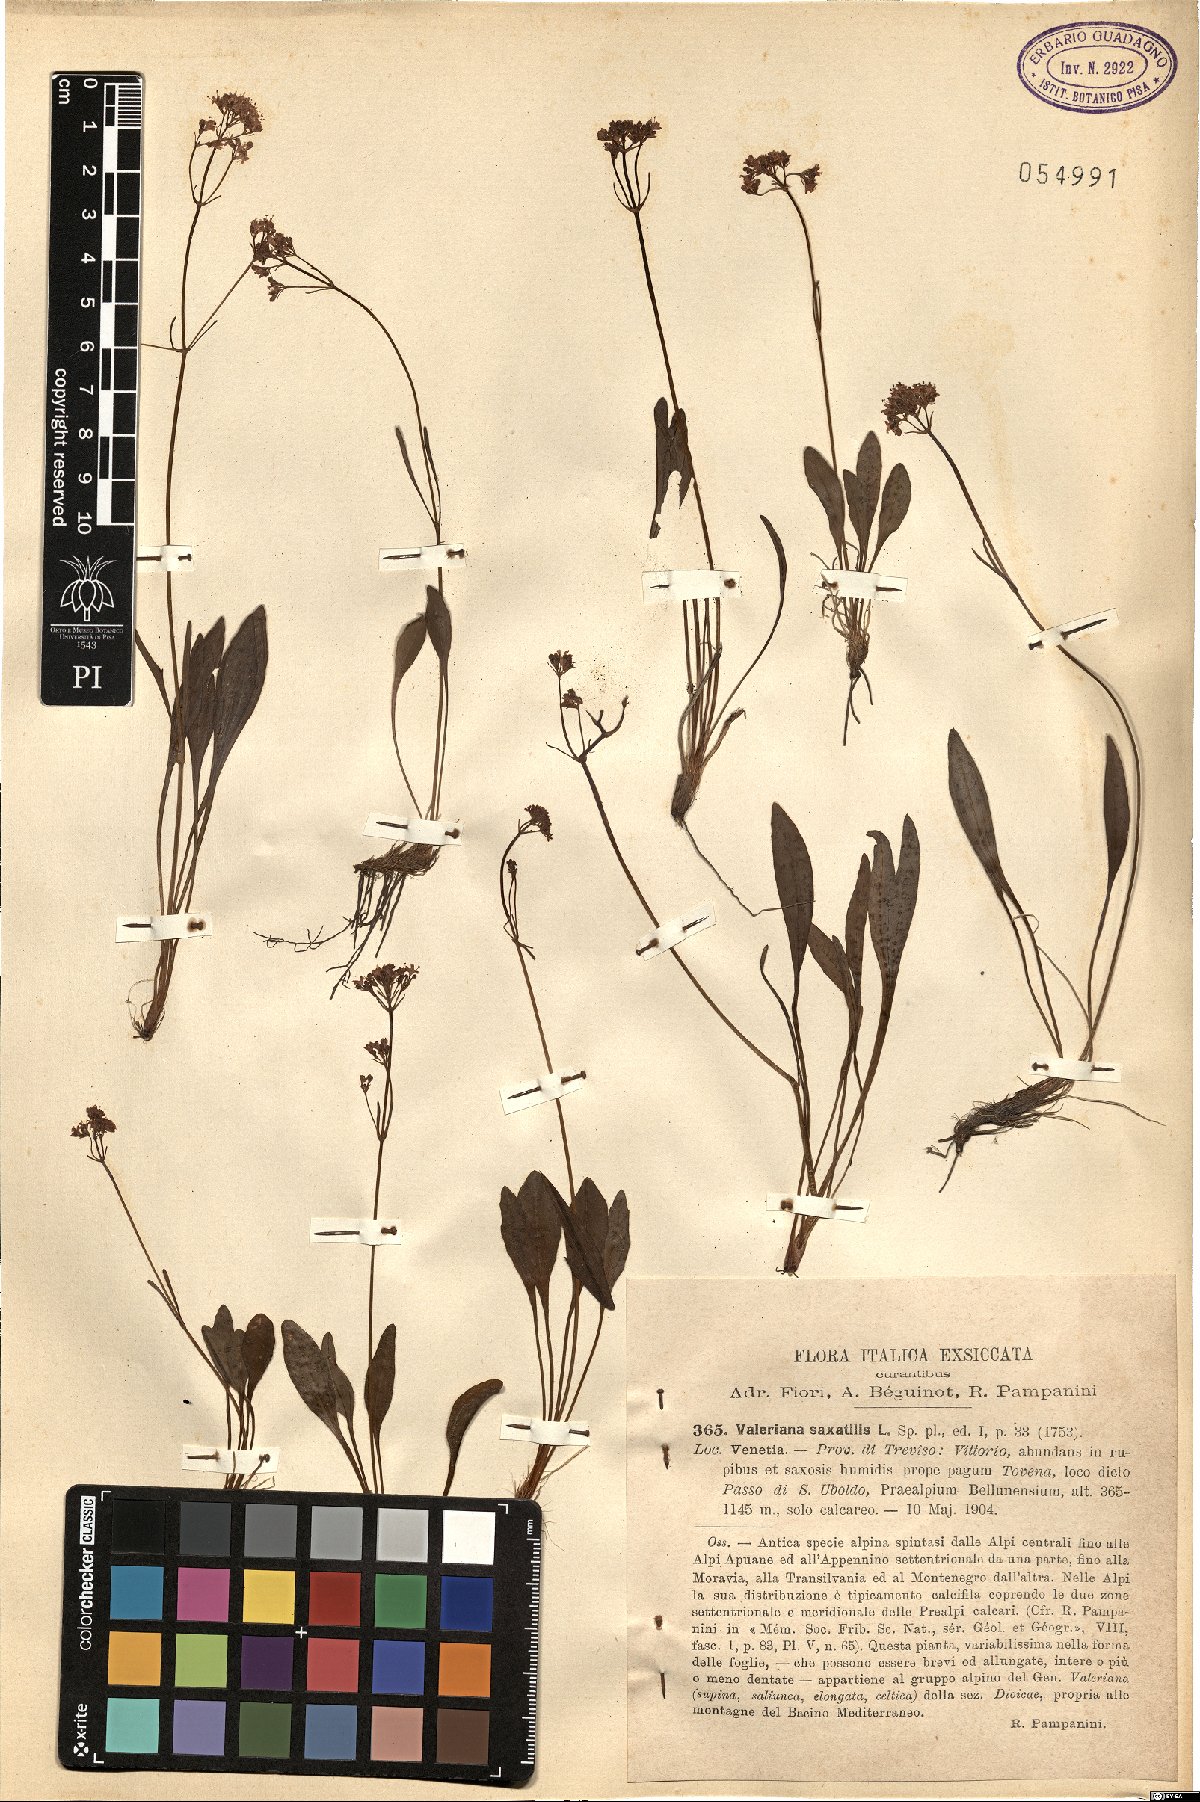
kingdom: Plantae
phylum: Tracheophyta
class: Magnoliopsida
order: Dipsacales
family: Caprifoliaceae
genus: Valeriana
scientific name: Valeriana saxatilis
